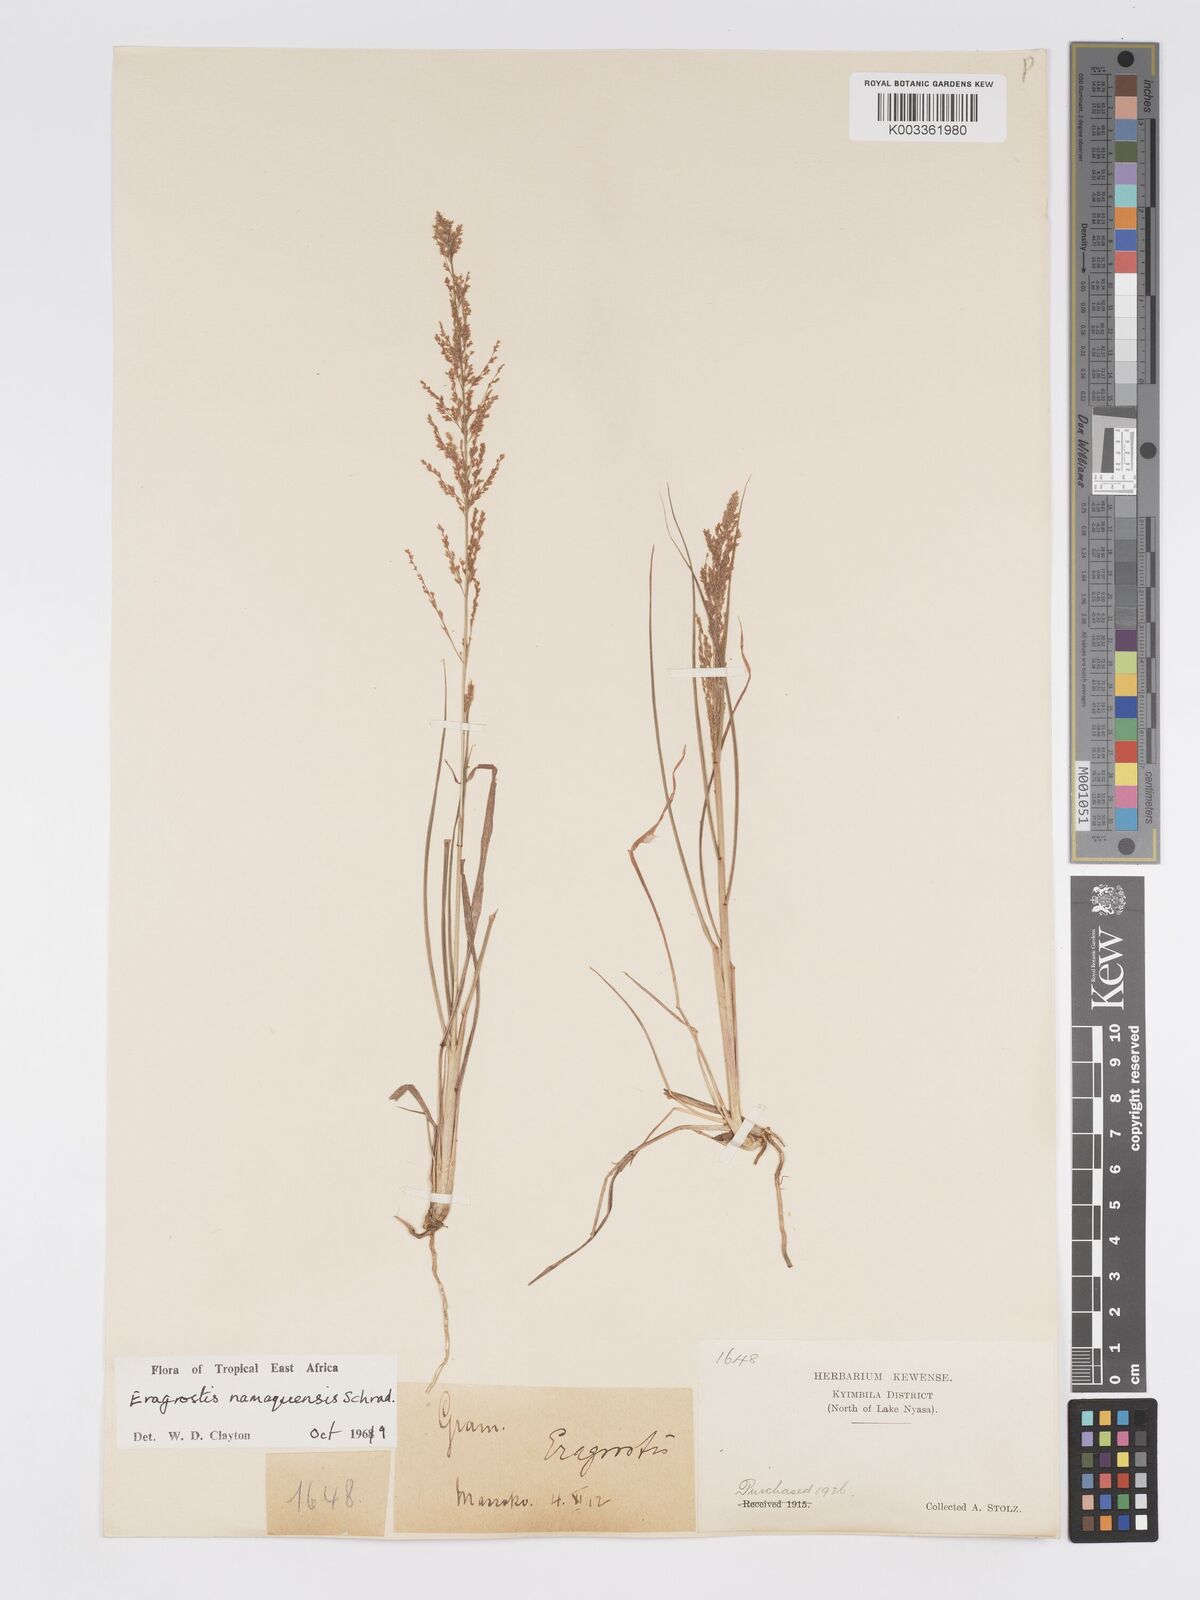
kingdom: Plantae
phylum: Tracheophyta
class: Liliopsida
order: Poales
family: Poaceae
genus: Eragrostis
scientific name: Eragrostis japonica
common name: Pond lovegrass
